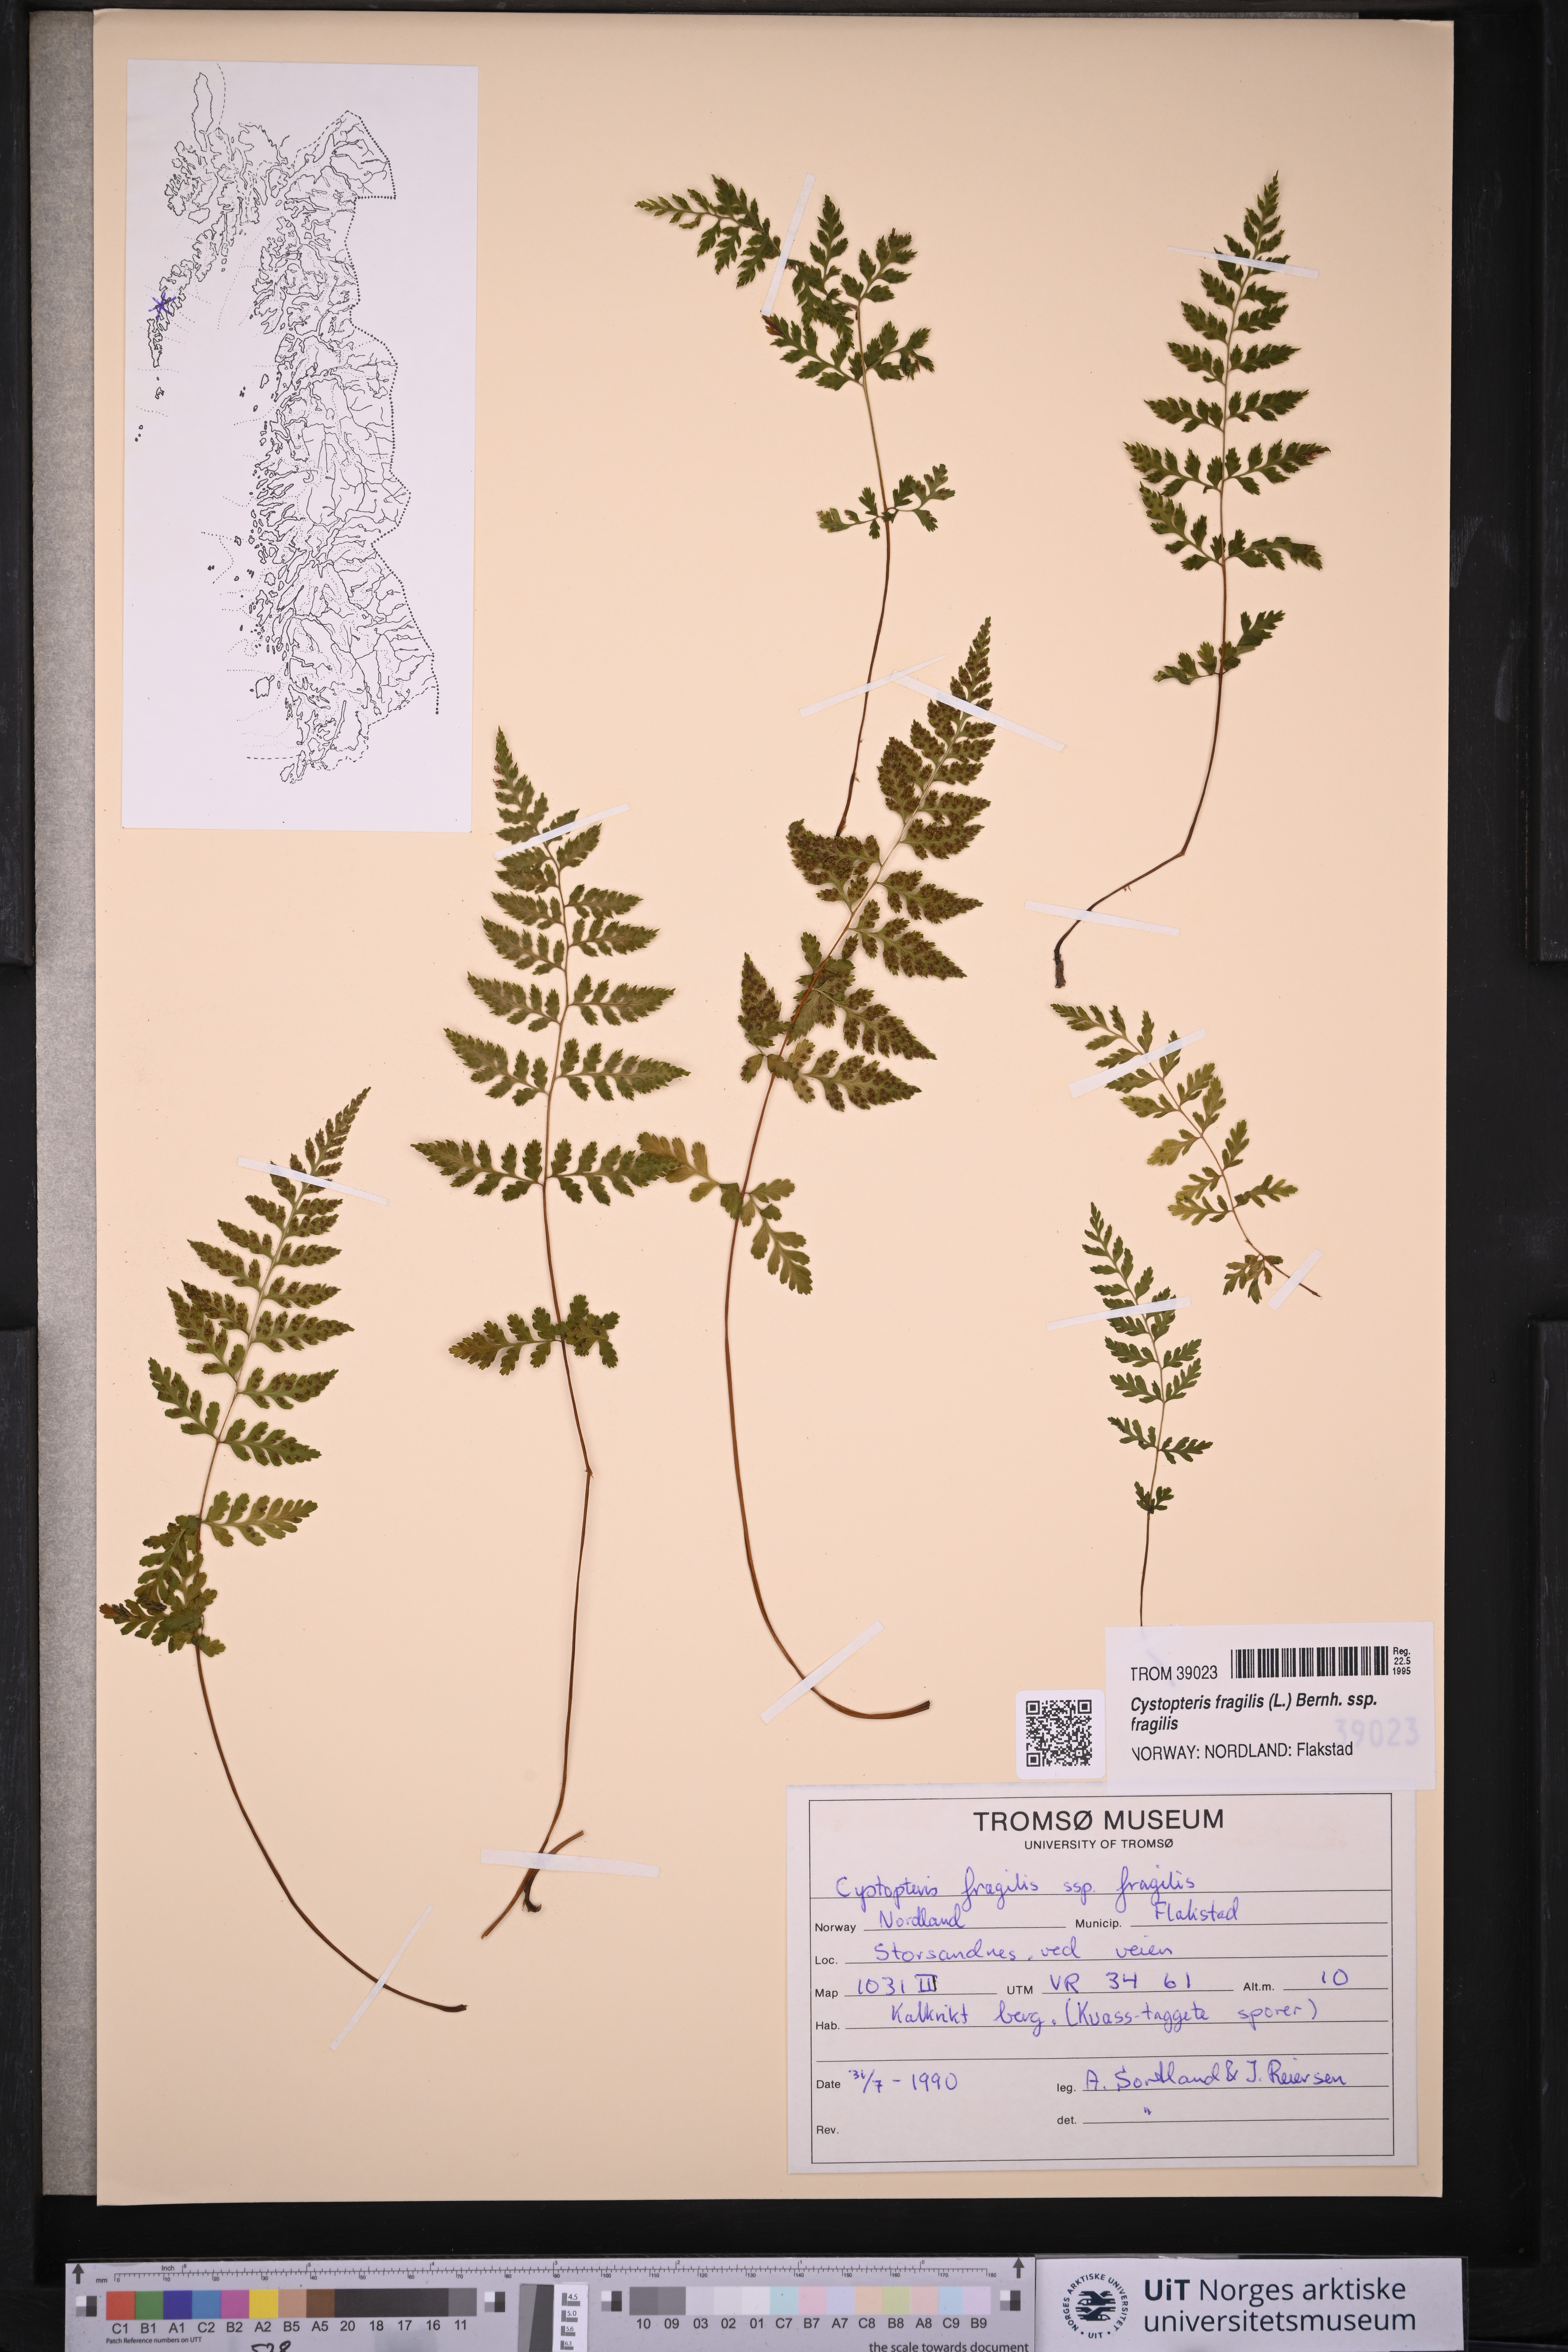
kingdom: Plantae
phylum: Tracheophyta
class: Polypodiopsida
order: Polypodiales
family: Cystopteridaceae
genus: Cystopteris
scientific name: Cystopteris fragilis
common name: Brittle bladder fern
